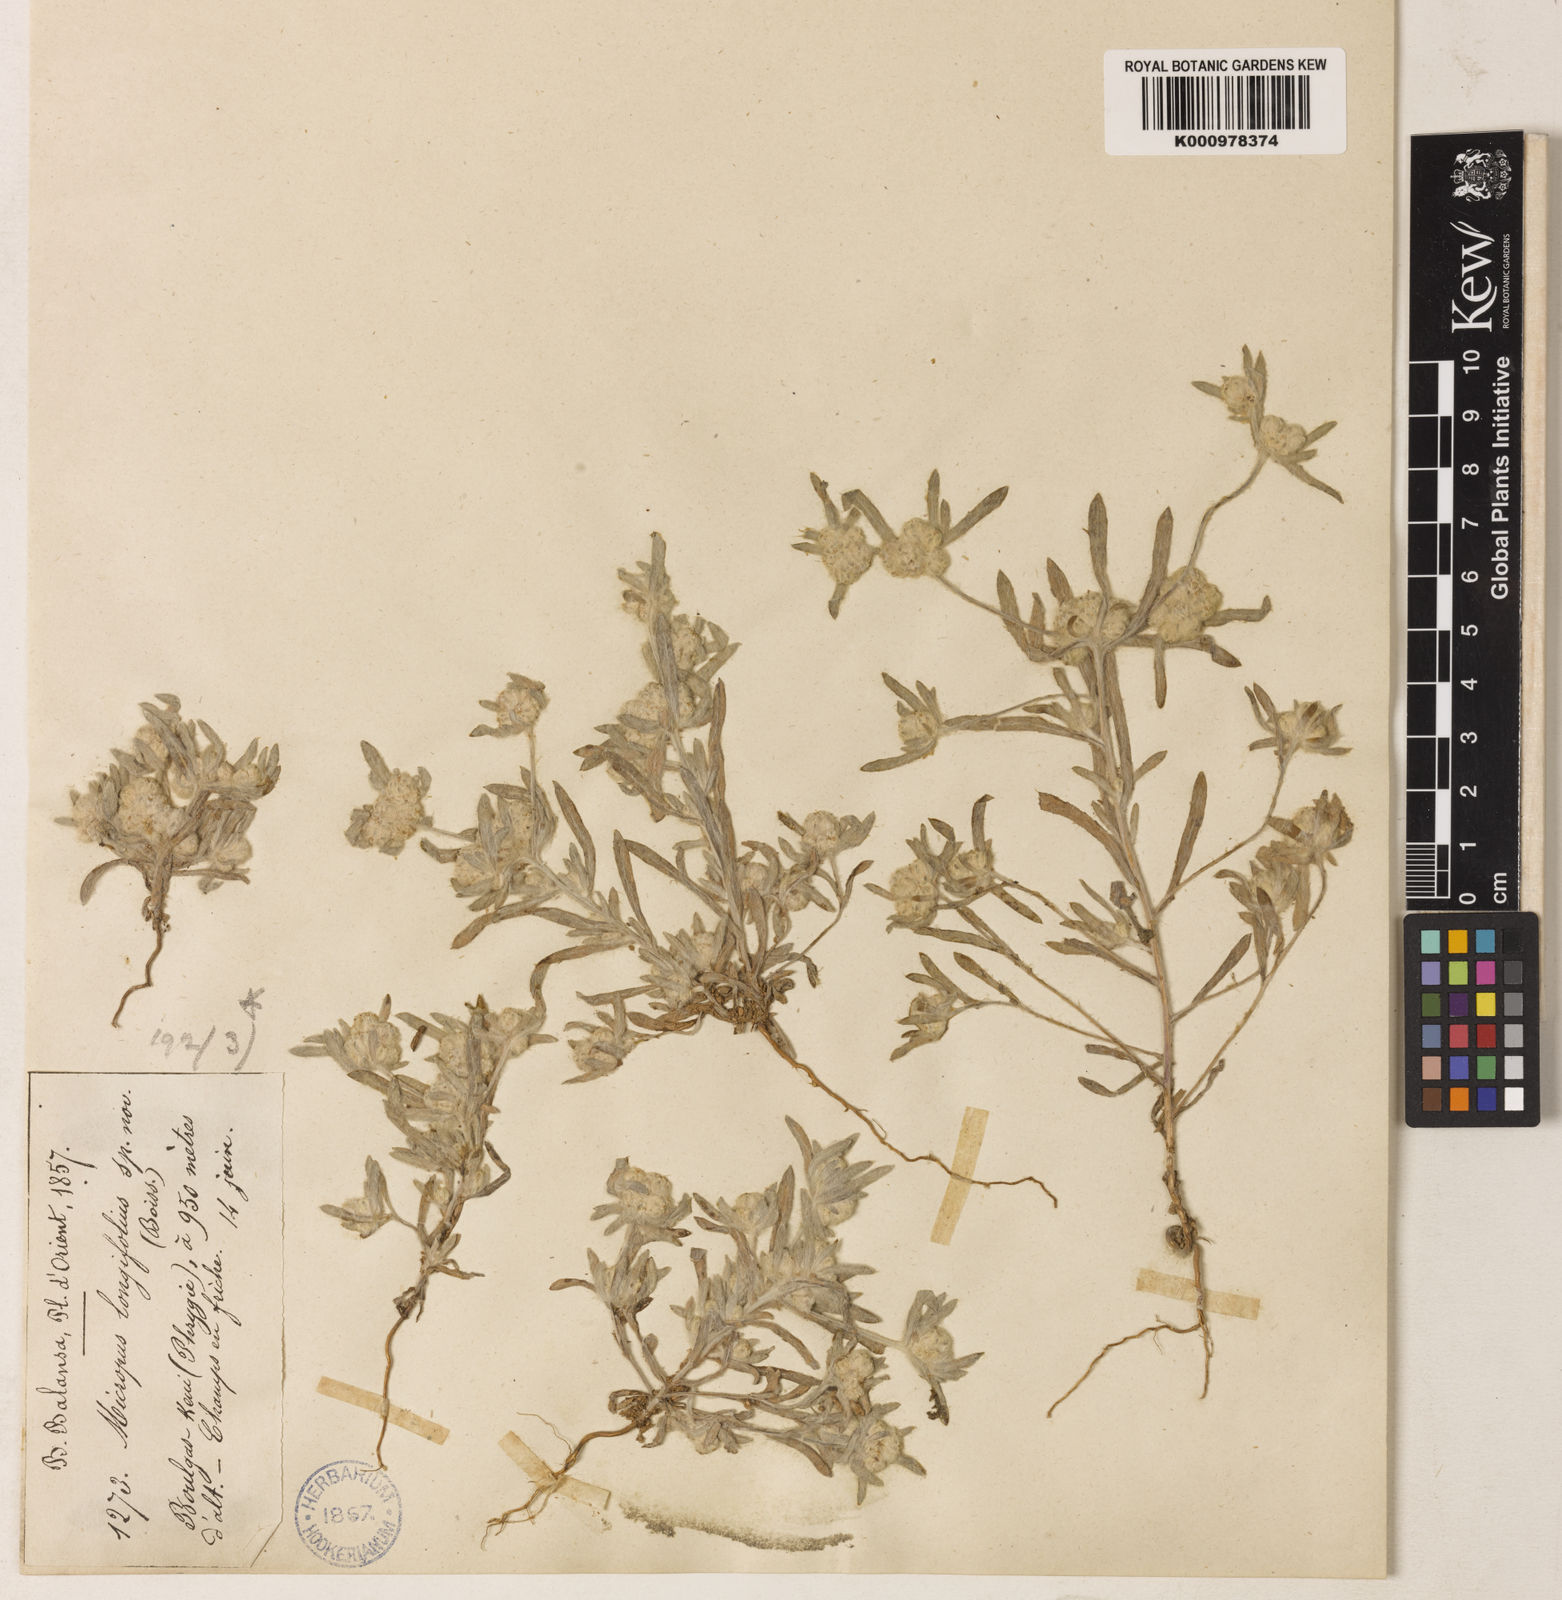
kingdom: Plantae
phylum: Tracheophyta
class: Magnoliopsida
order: Asterales
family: Asteraceae
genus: Filago
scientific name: Filago griffithii
